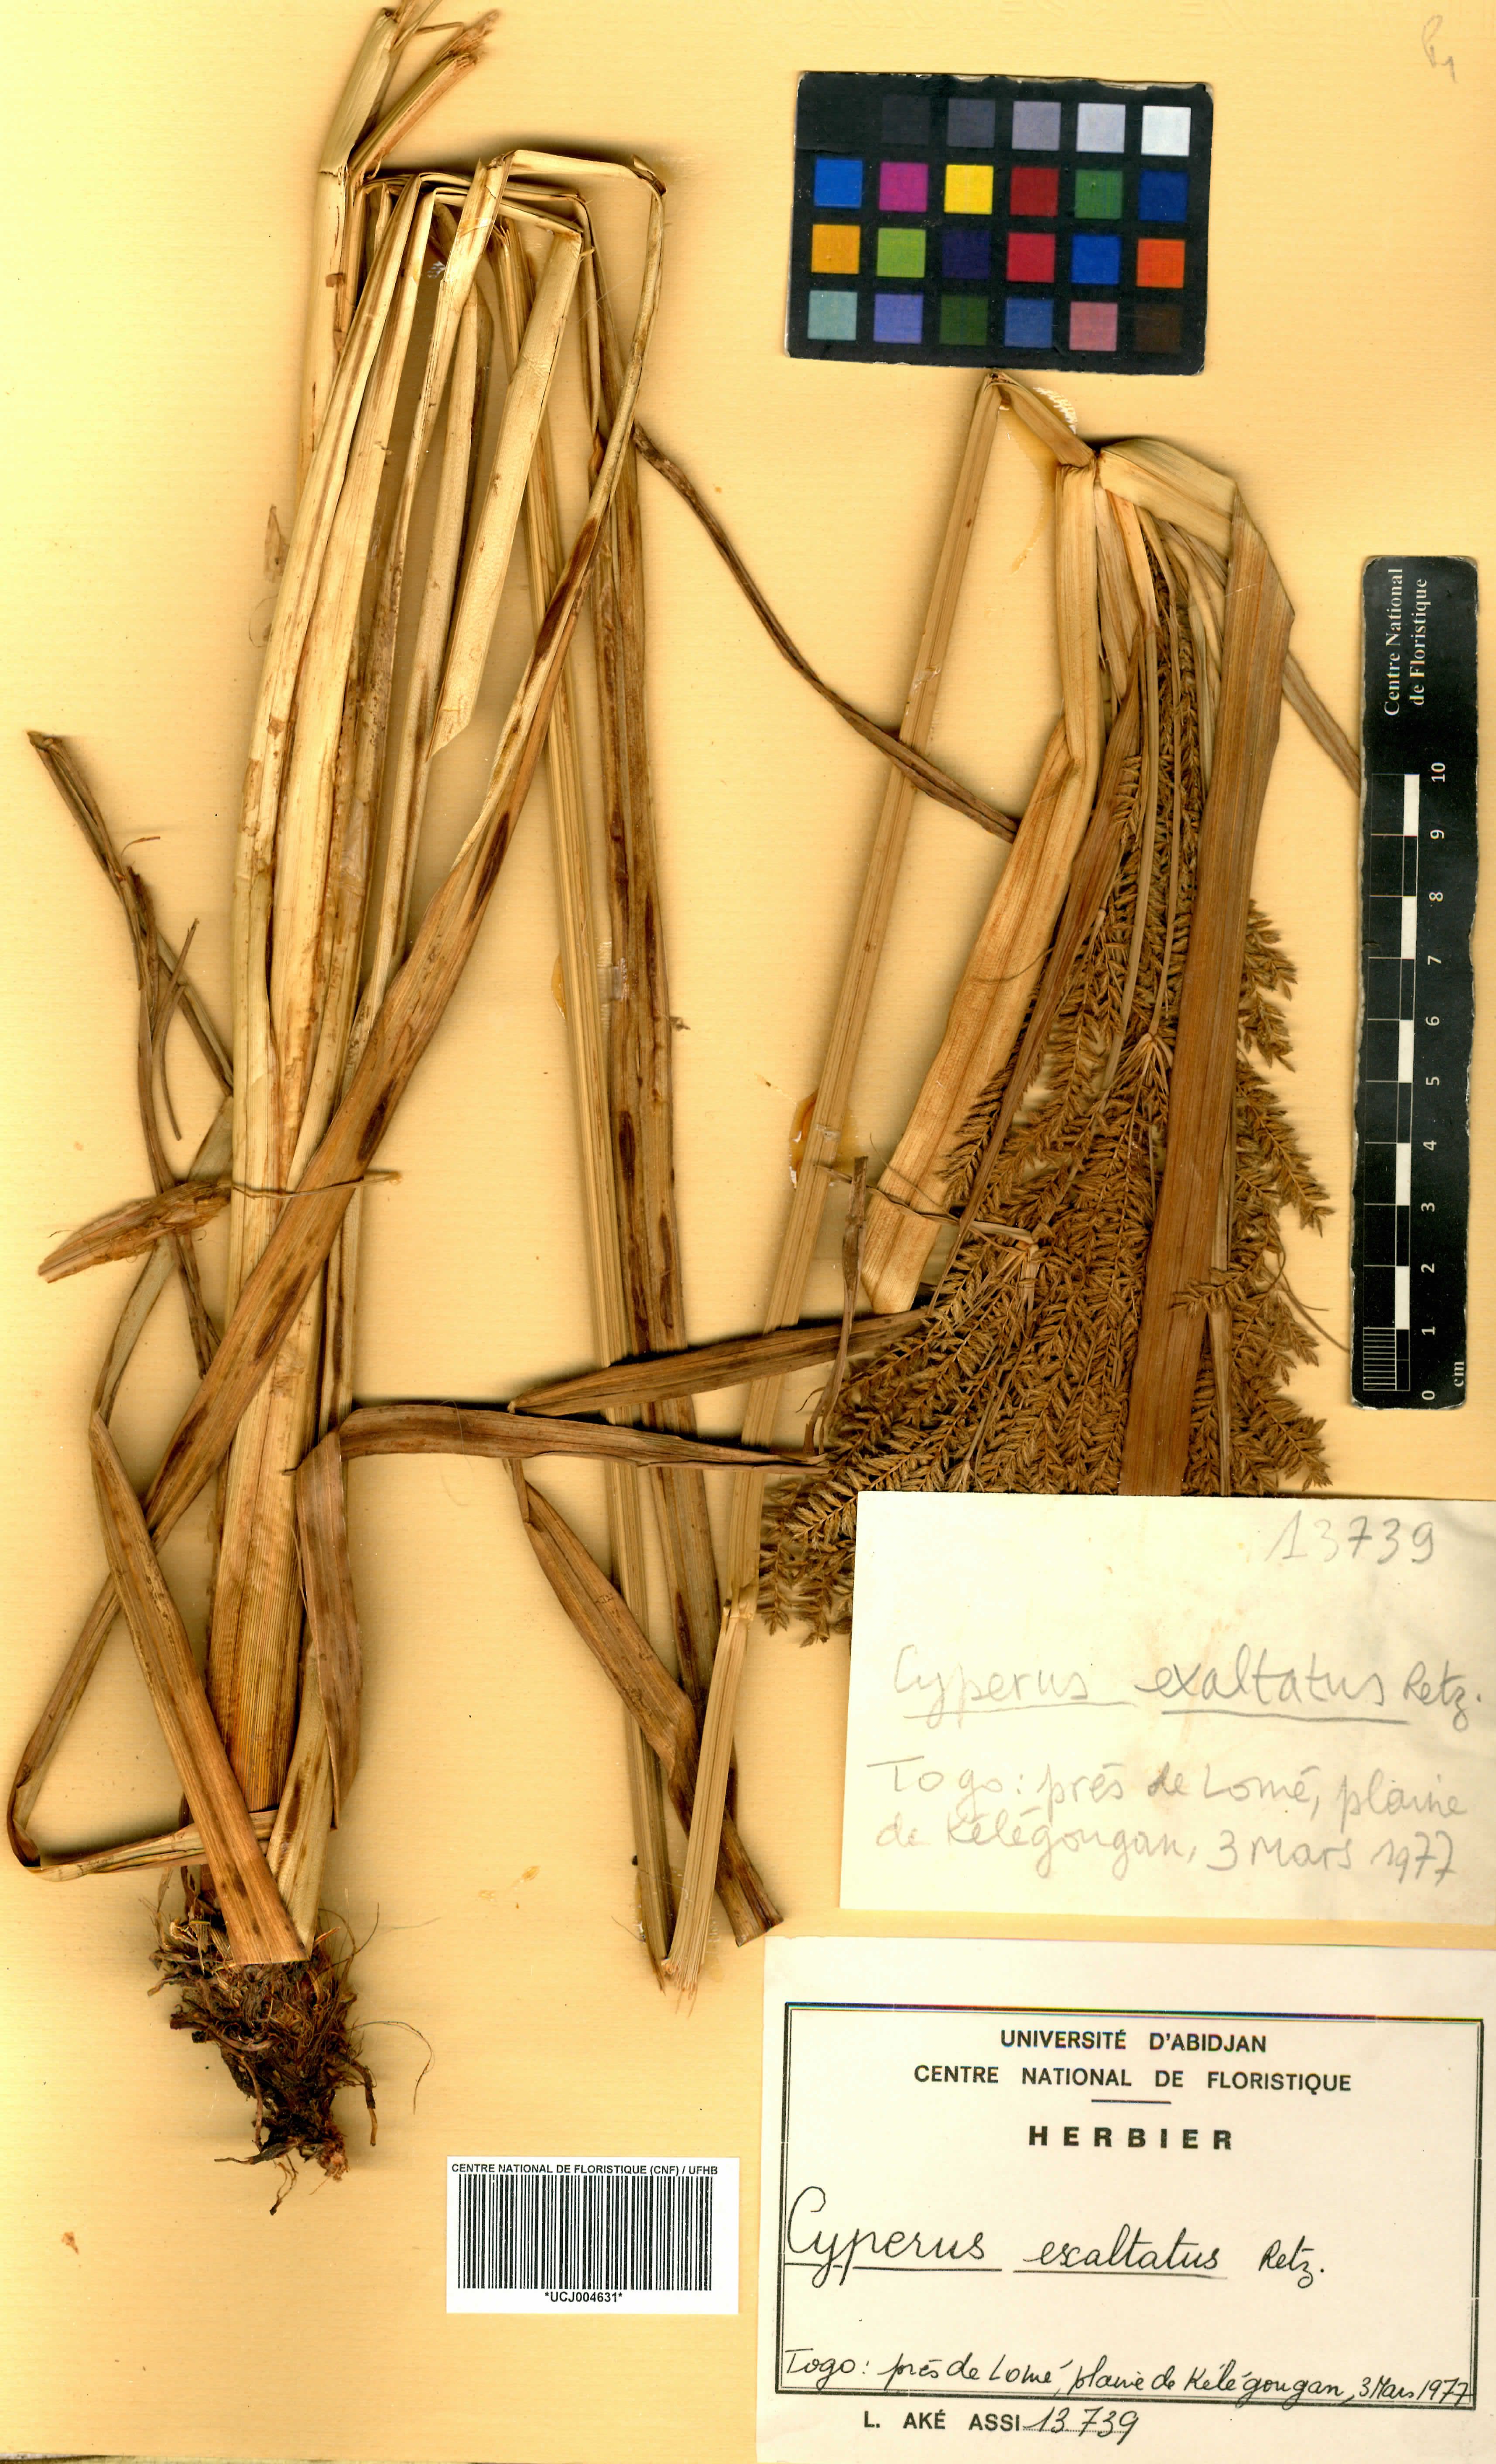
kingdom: Plantae
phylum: Tracheophyta
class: Liliopsida
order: Poales
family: Cyperaceae
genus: Cyperus
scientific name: Cyperus exaltatus
